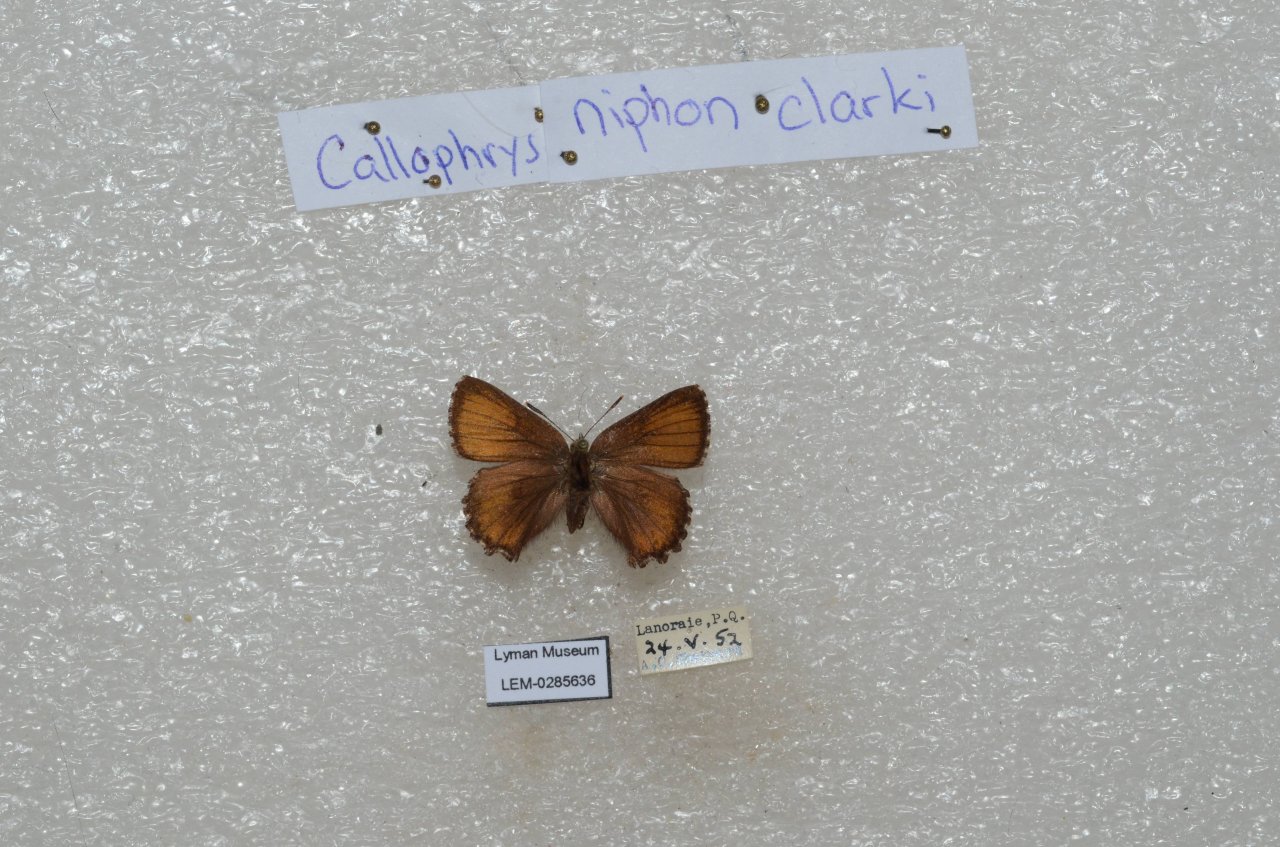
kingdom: Animalia
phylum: Arthropoda
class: Insecta
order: Lepidoptera
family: Lycaenidae
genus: Incisalia
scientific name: Incisalia niphon
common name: Eastern Pine Elfin
